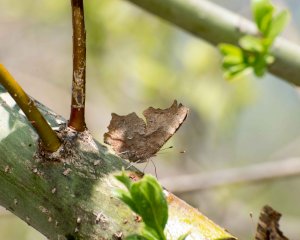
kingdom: Animalia
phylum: Arthropoda
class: Insecta
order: Lepidoptera
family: Nymphalidae
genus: Polygonia
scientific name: Polygonia interrogationis
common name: Question Mark
